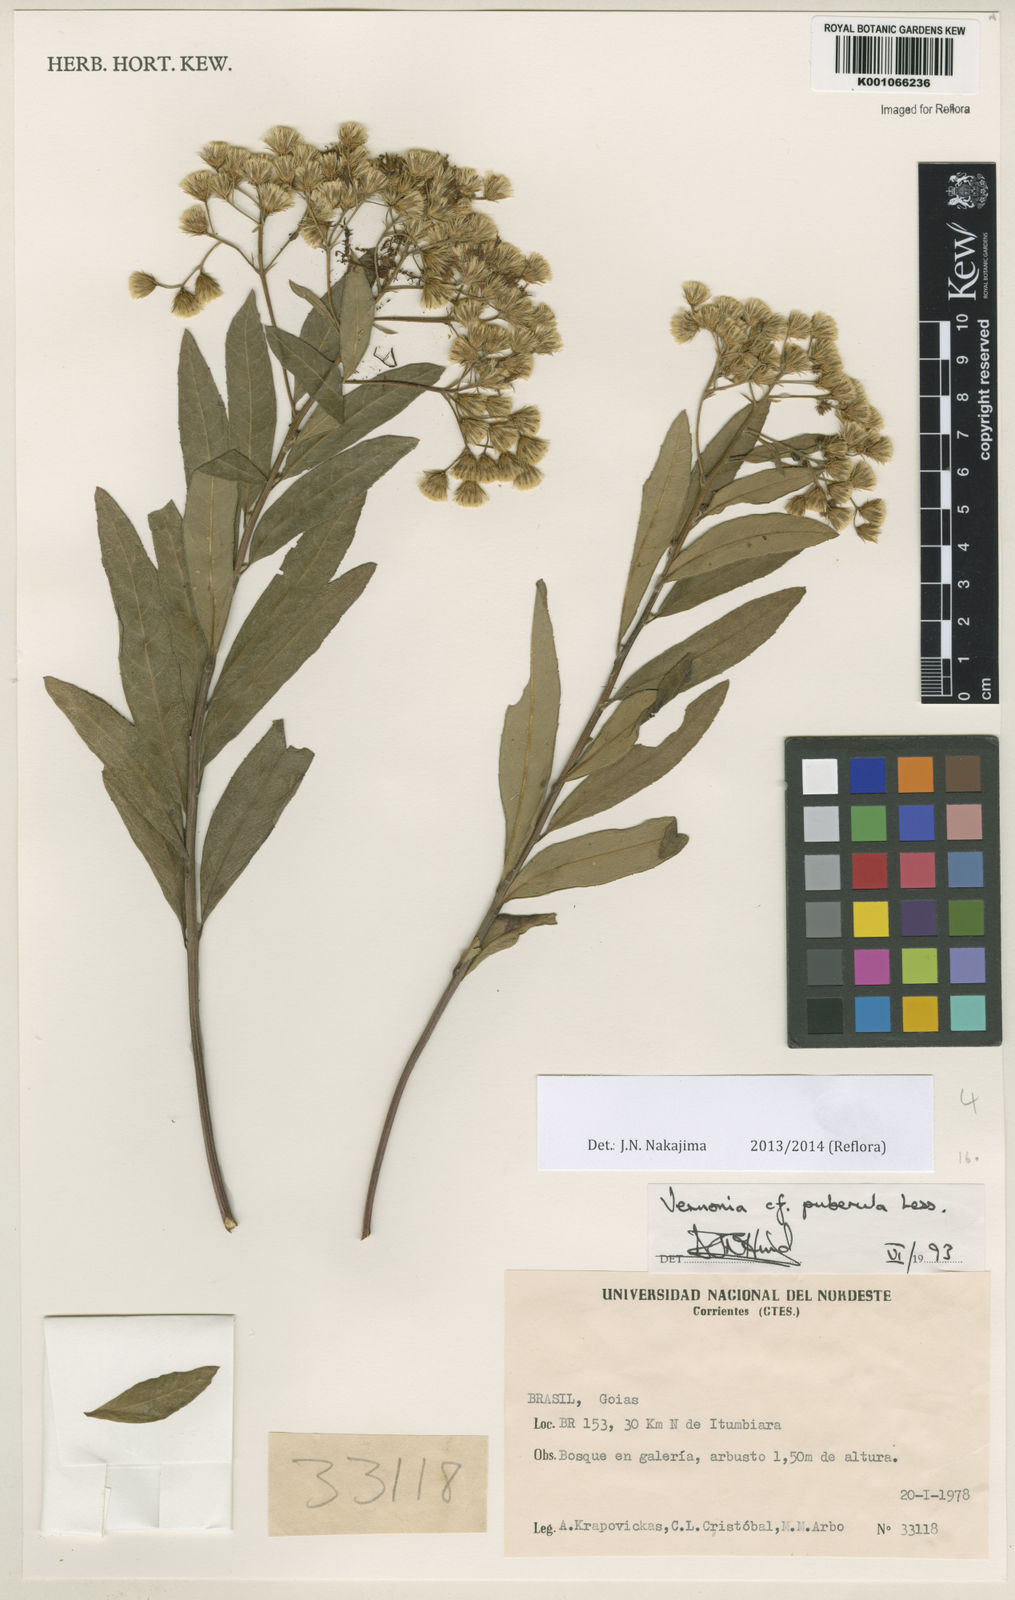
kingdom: Plantae
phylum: Tracheophyta
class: Magnoliopsida
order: Asterales
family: Asteraceae
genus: Vernonanthura
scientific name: Vernonanthura polyanthes
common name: Tree aster
